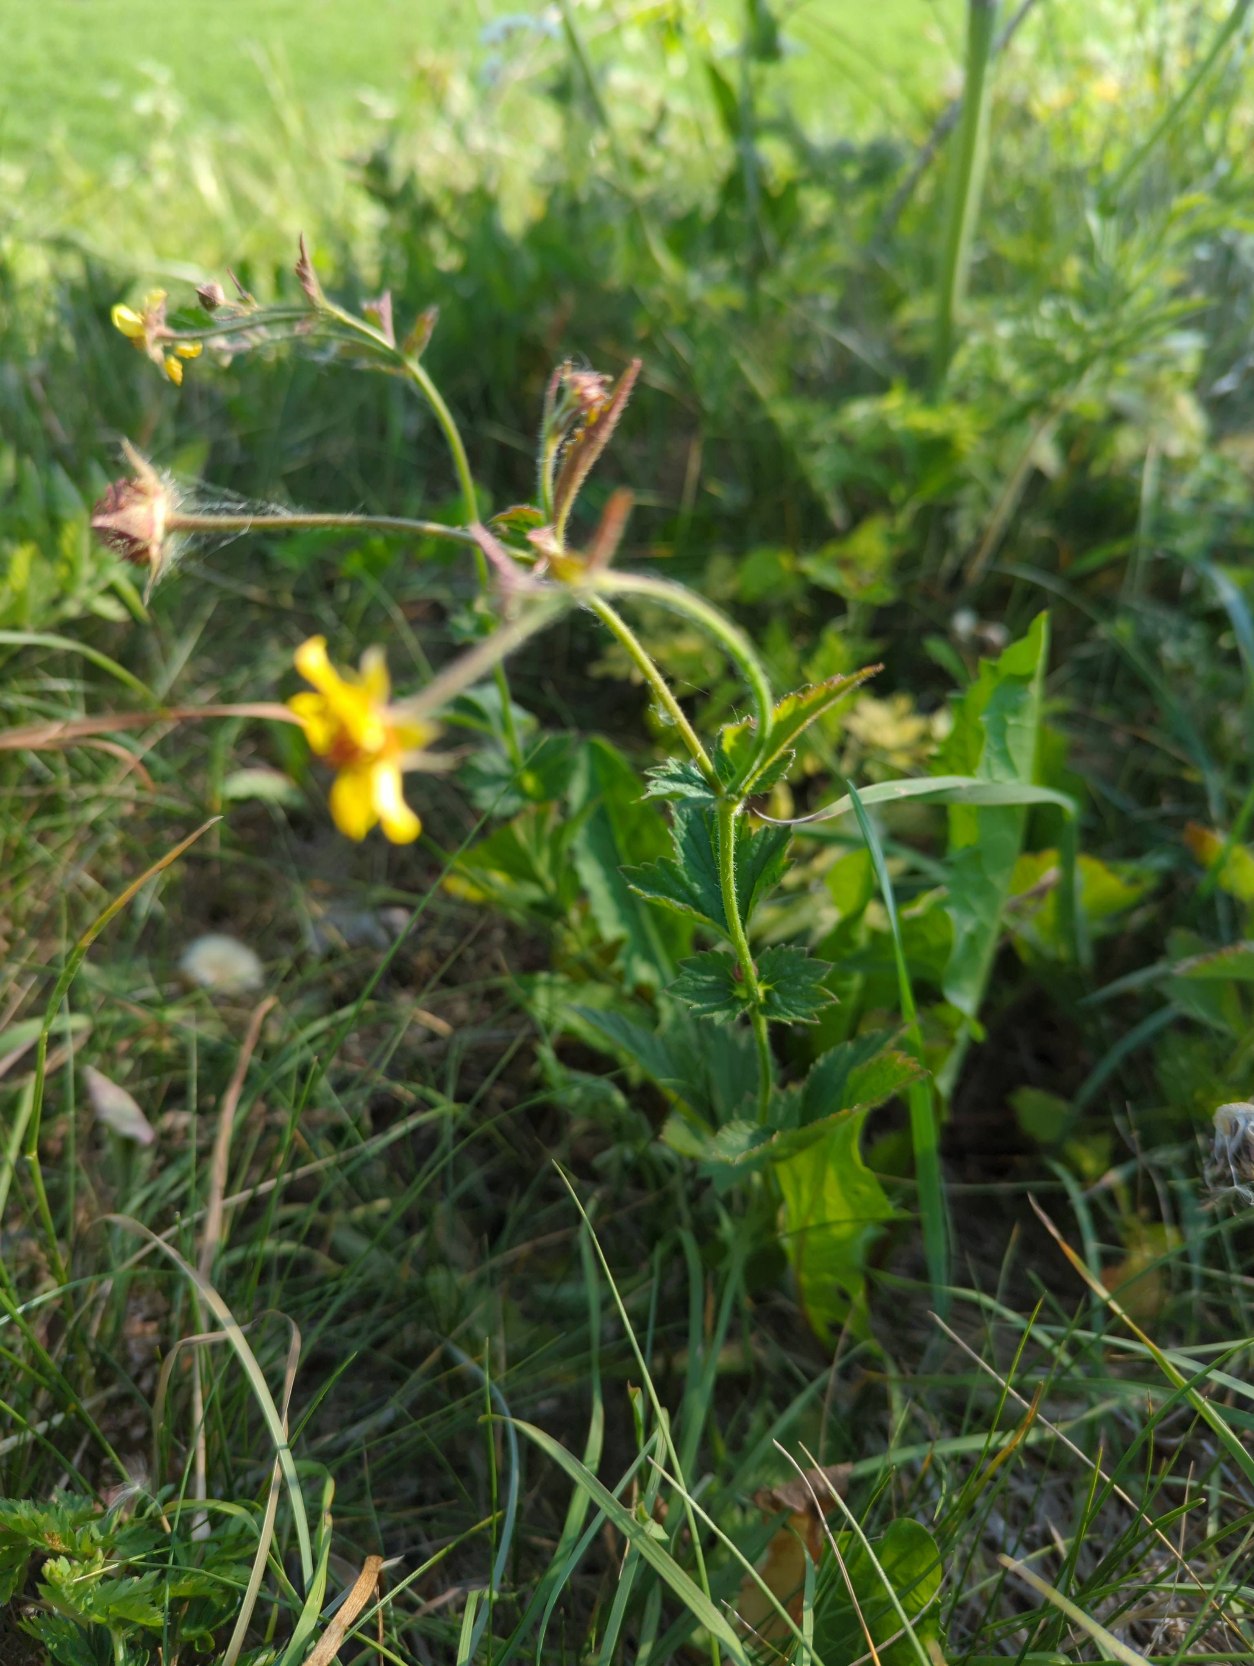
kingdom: Plantae
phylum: Tracheophyta
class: Magnoliopsida
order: Rosales
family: Rosaceae
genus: Geum
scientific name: Geum urbanum
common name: Feber-nellikerod
